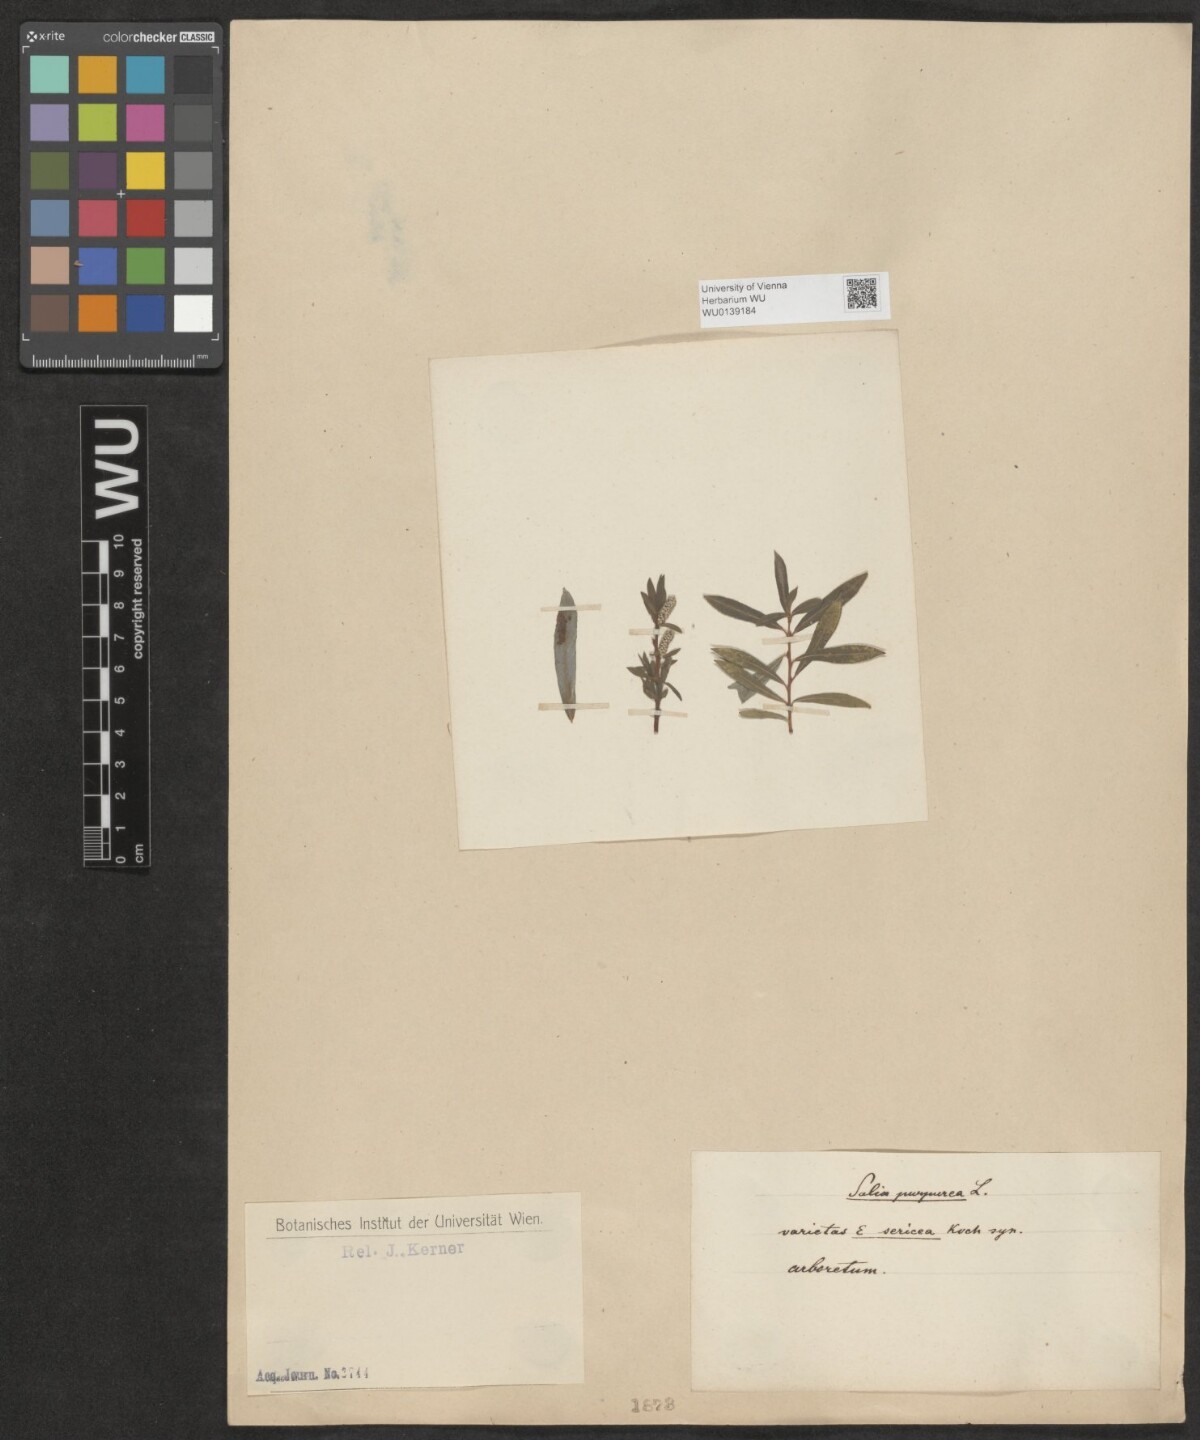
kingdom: Plantae
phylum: Tracheophyta
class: Magnoliopsida
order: Malpighiales
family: Salicaceae
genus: Salix
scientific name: Salix purpurea
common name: Purple willow
